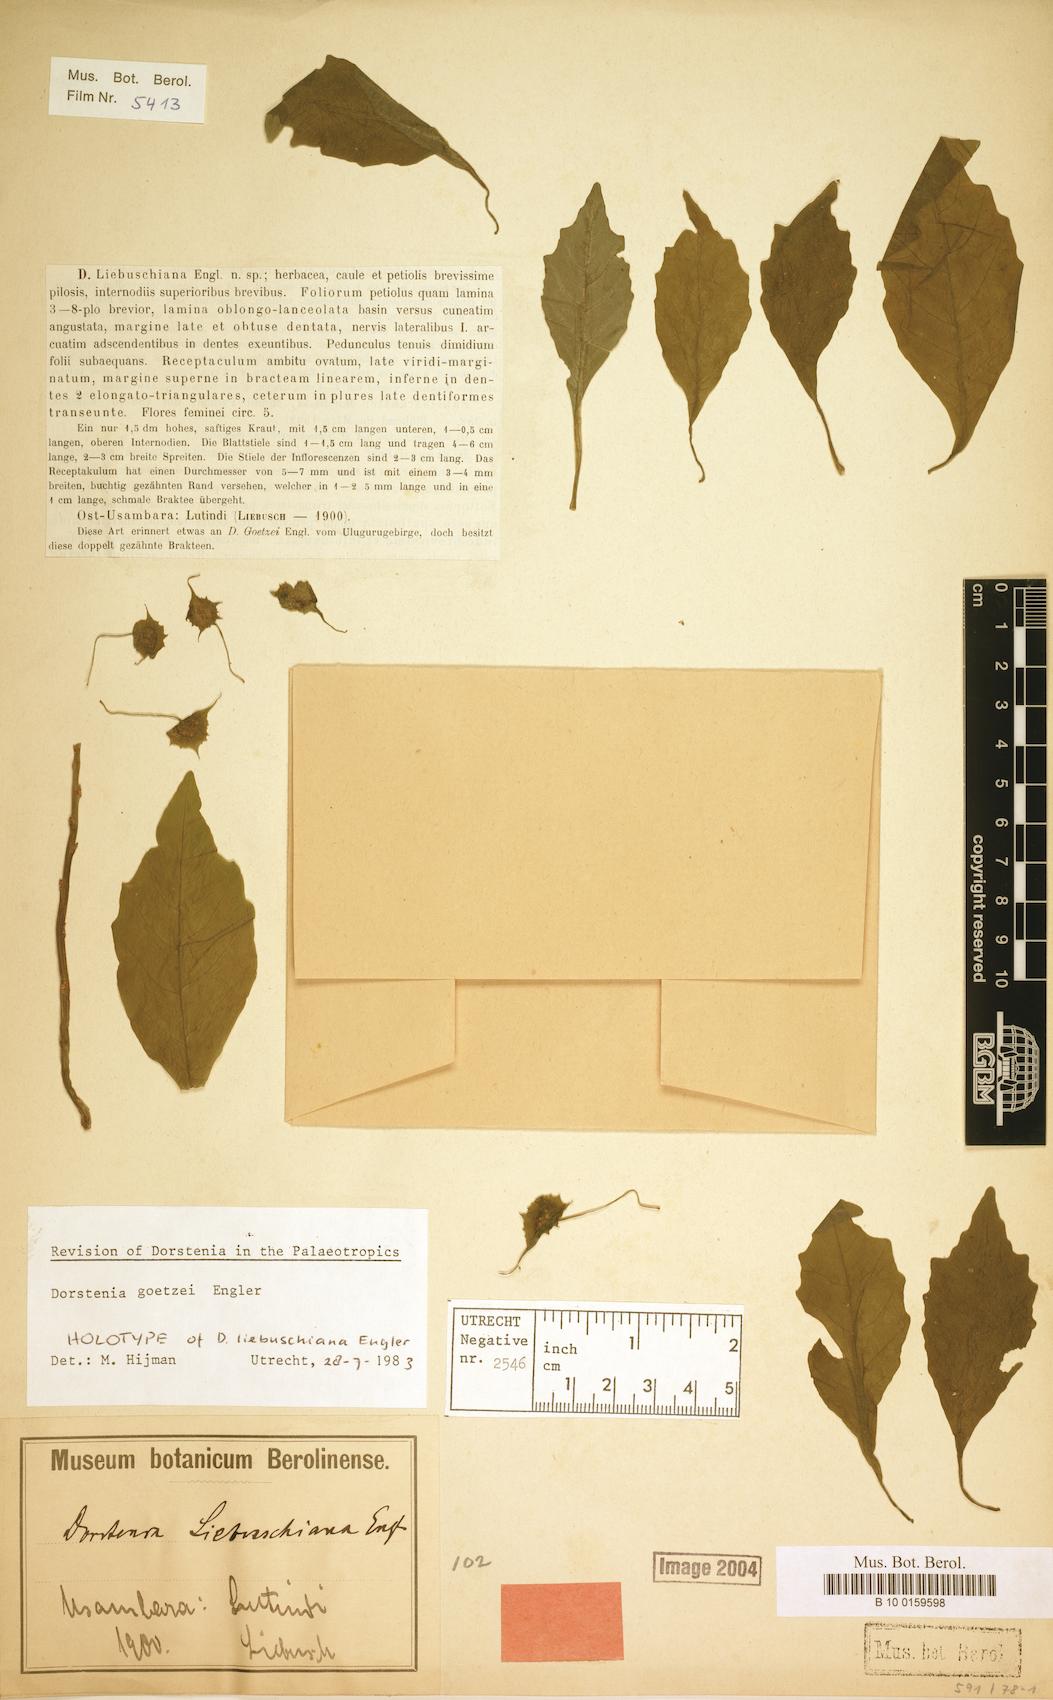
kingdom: Plantae
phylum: Tracheophyta
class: Magnoliopsida
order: Rosales
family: Moraceae
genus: Dorstenia
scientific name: Dorstenia goetzei
